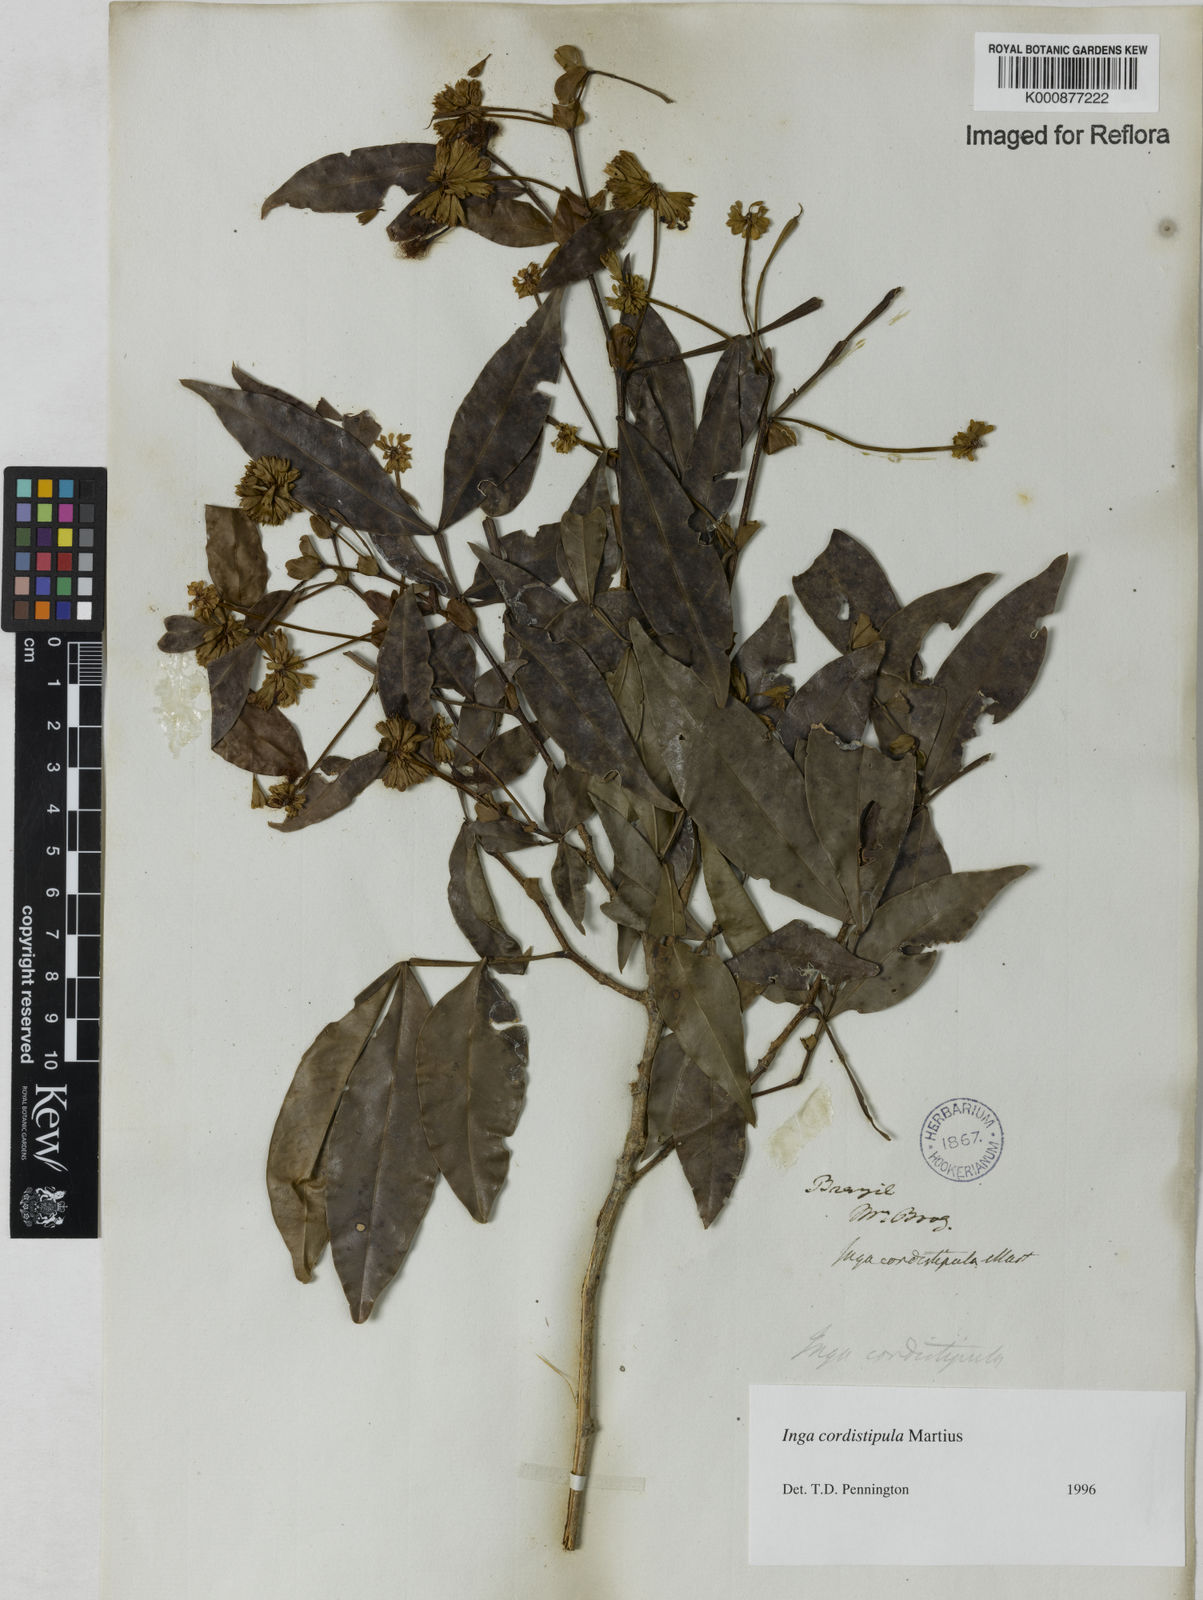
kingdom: Plantae
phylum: Tracheophyta
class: Magnoliopsida
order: Fabales
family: Fabaceae
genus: Inga
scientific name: Inga cordistipula
